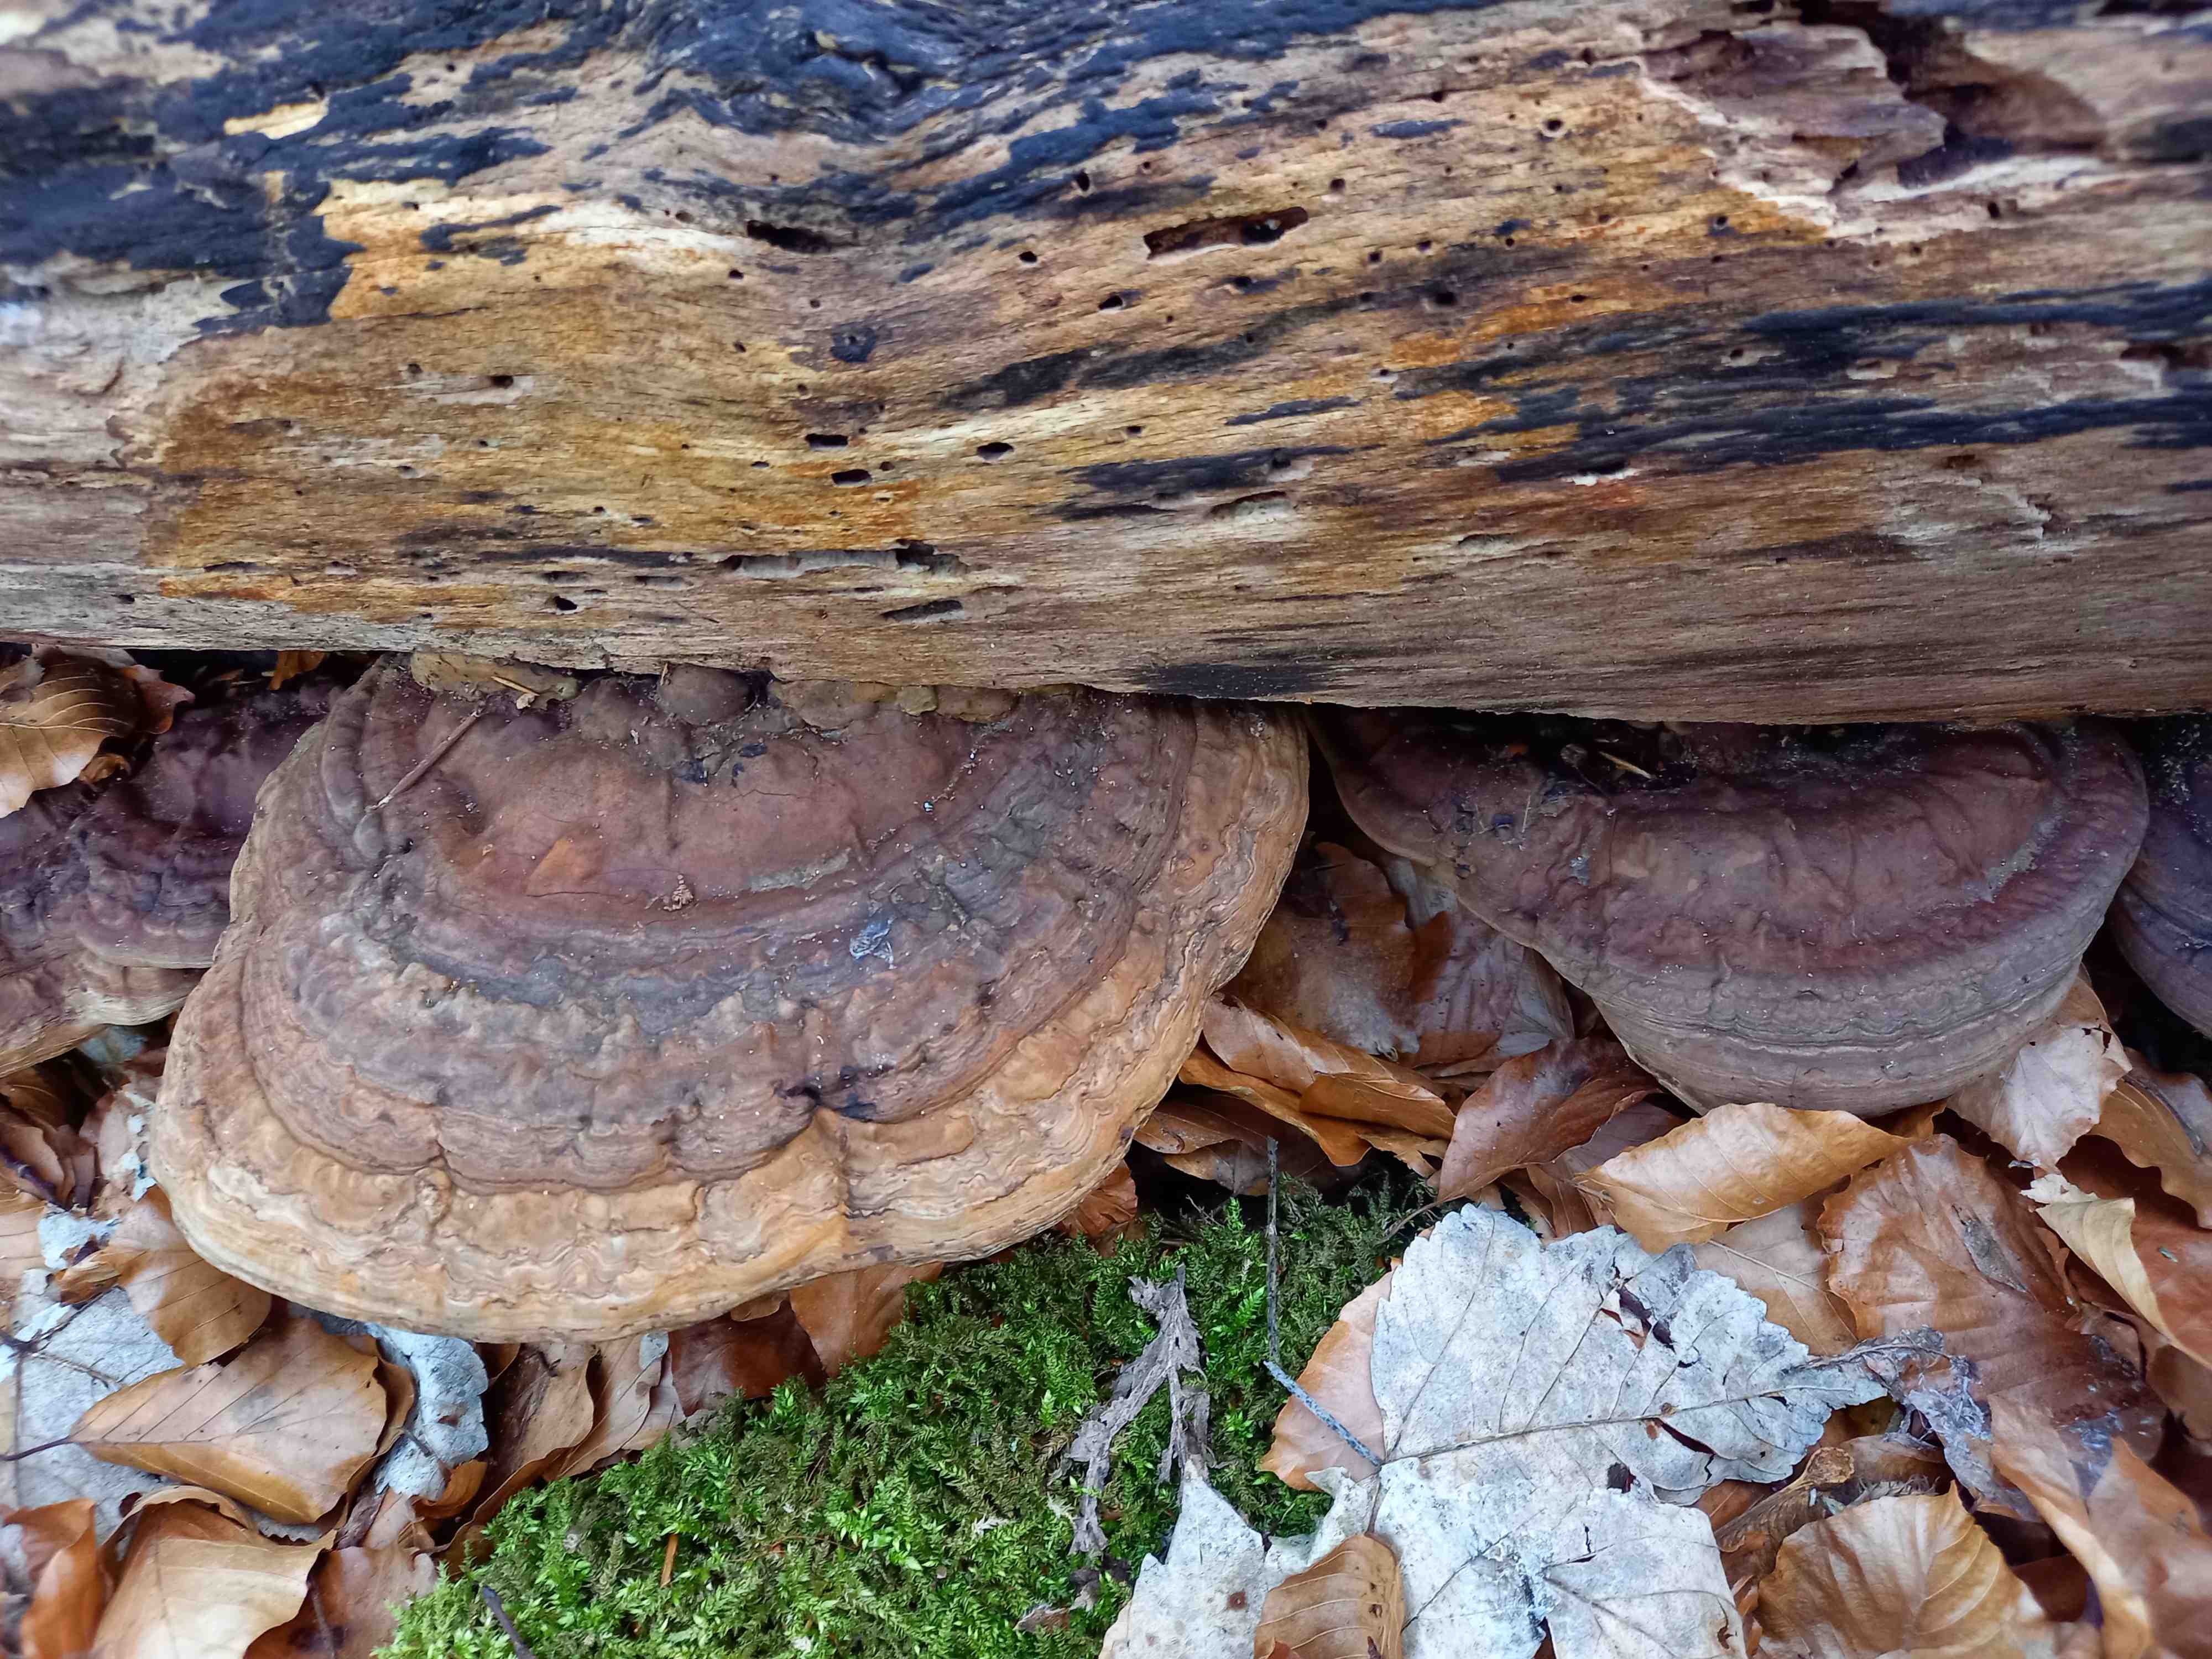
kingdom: Fungi
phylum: Basidiomycota
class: Agaricomycetes
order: Polyporales
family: Polyporaceae
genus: Ganoderma
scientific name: Ganoderma applanatum
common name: flad lakporesvamp
